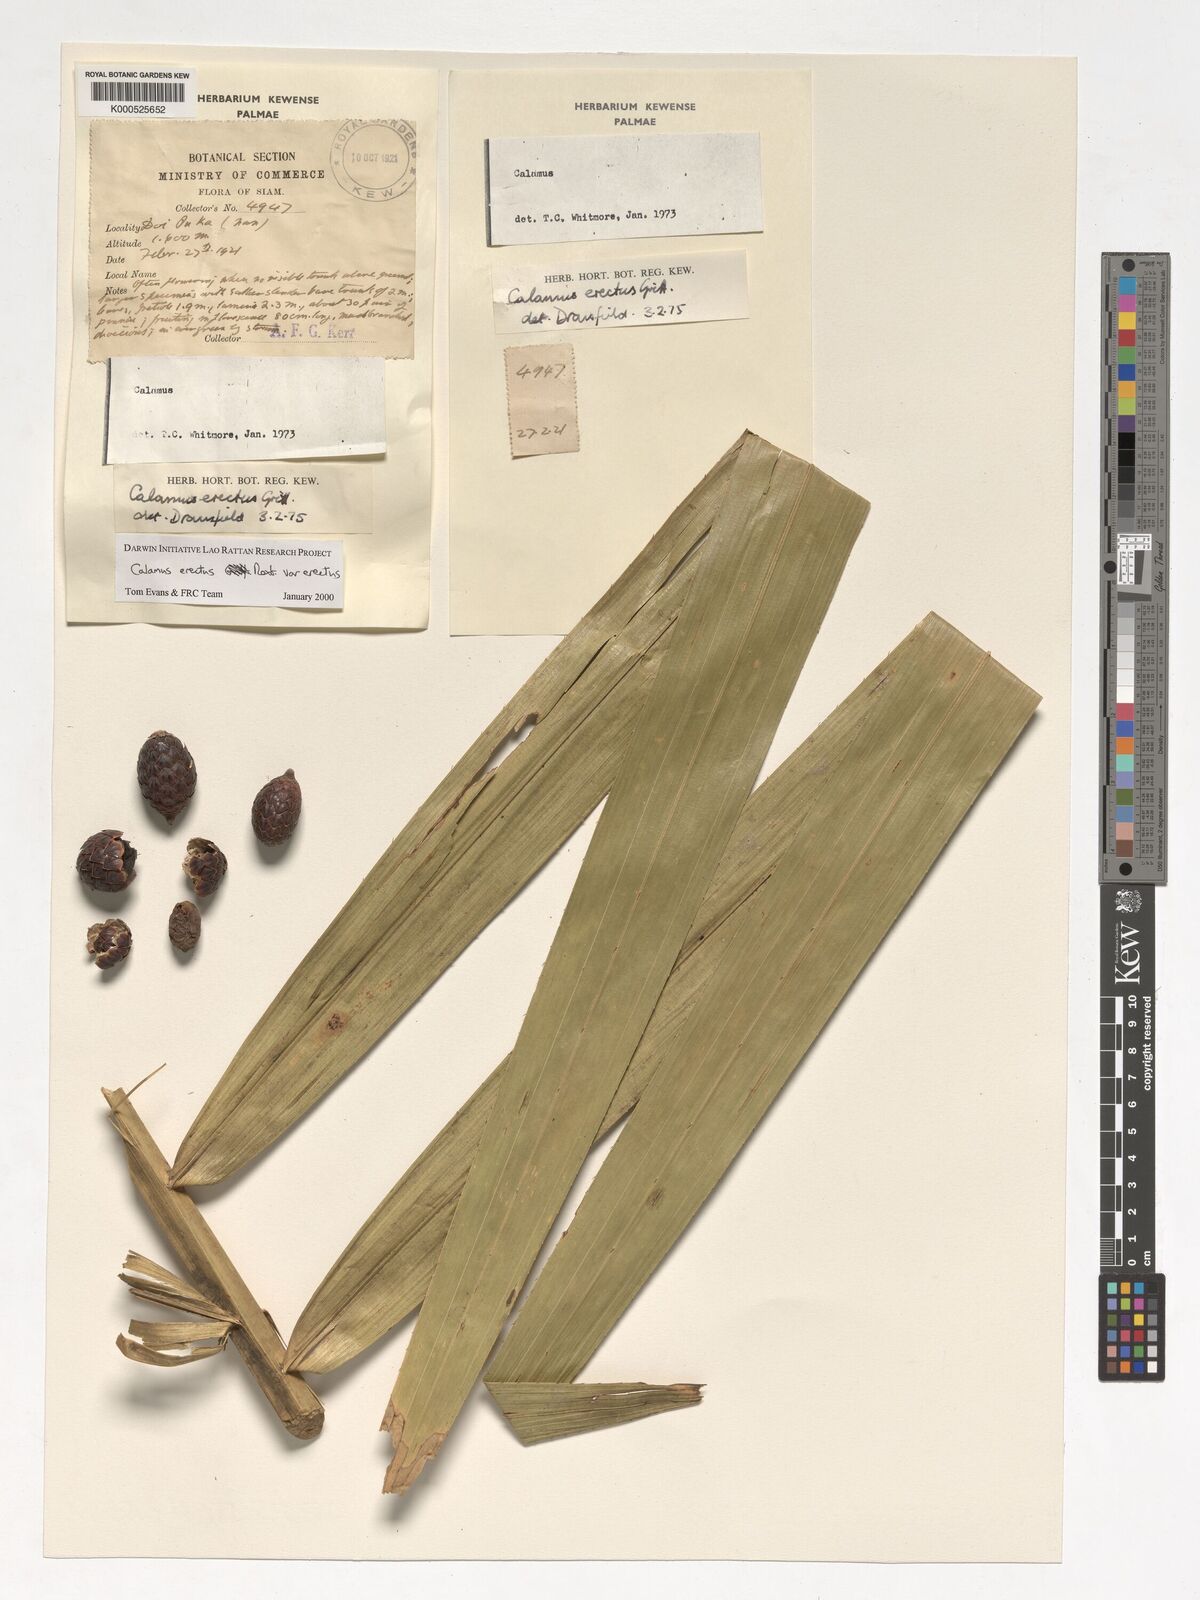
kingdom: Plantae
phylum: Tracheophyta
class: Liliopsida
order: Arecales
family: Arecaceae
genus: Calamus
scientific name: Calamus erectus
